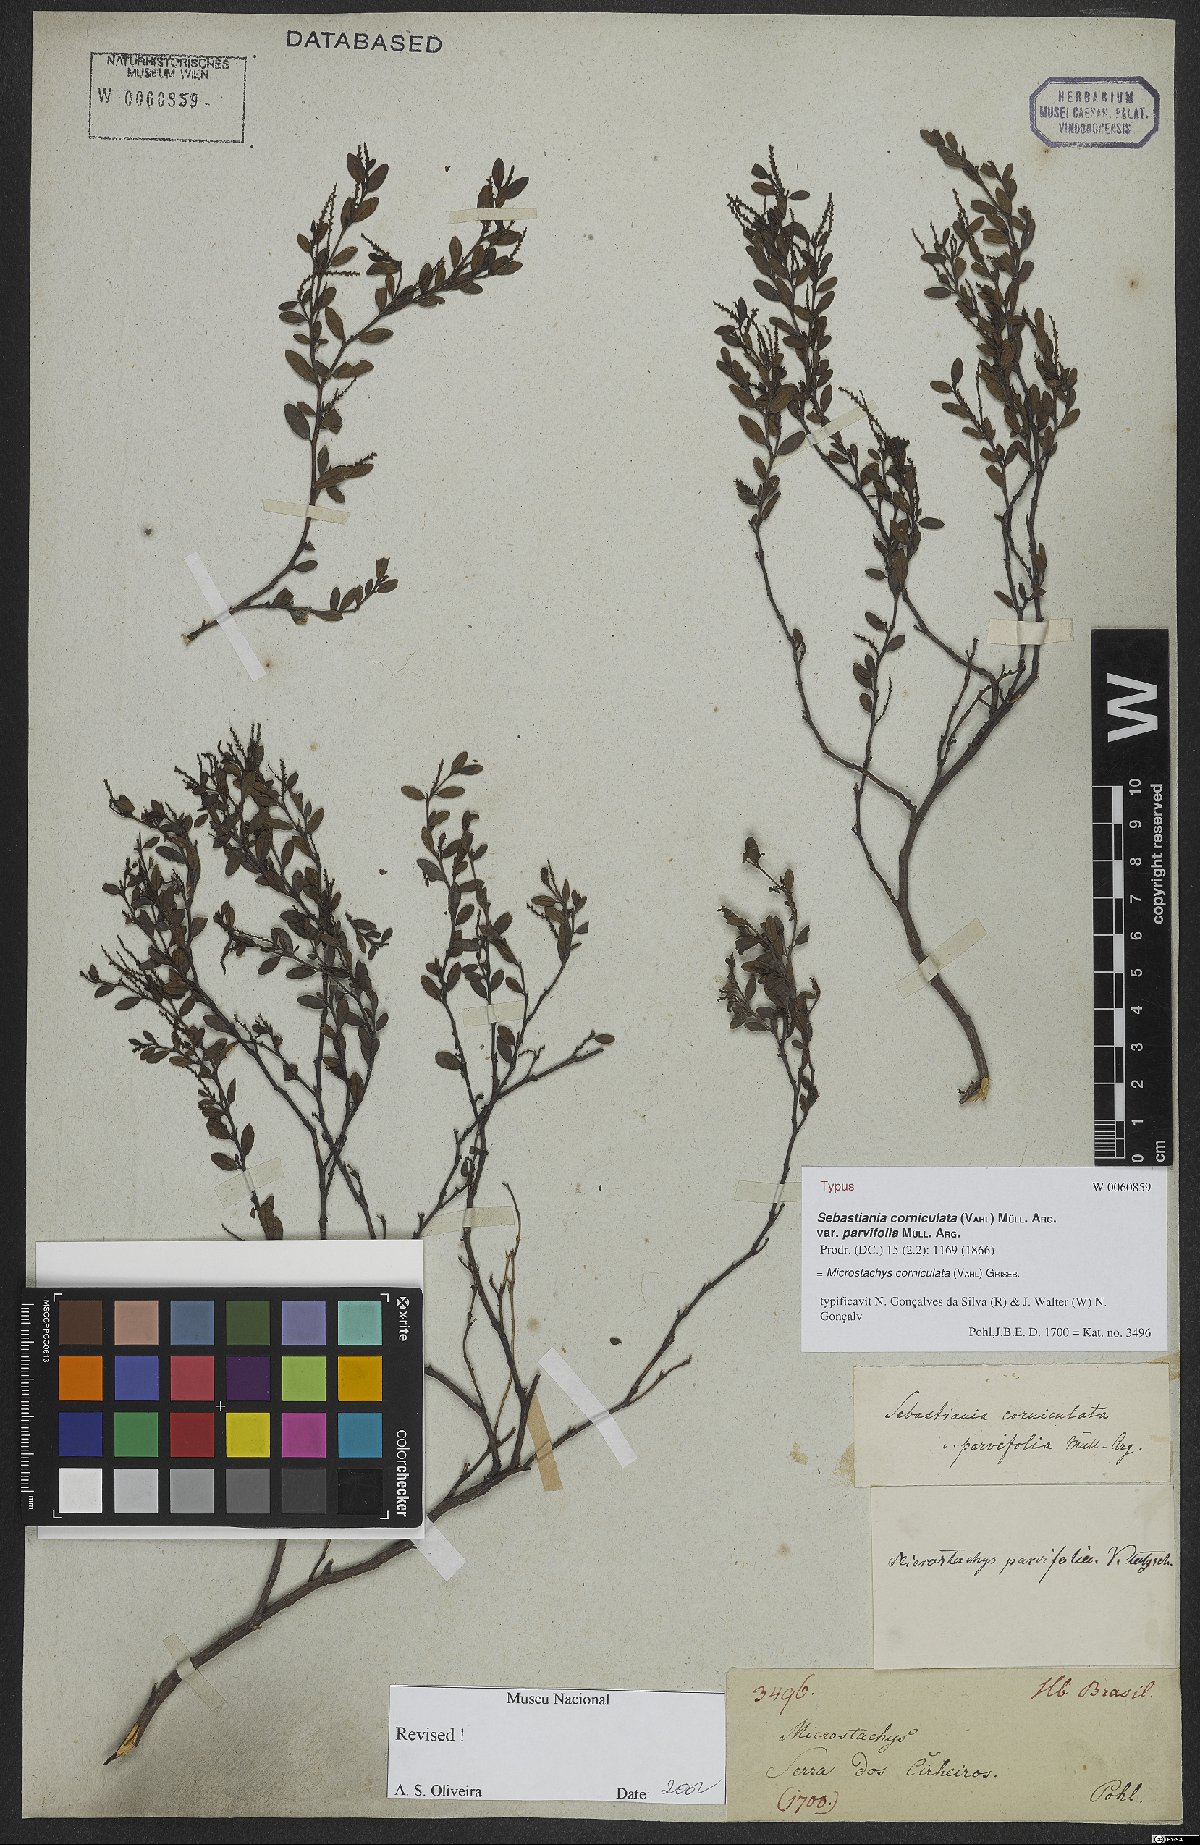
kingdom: Plantae
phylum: Tracheophyta
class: Magnoliopsida
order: Malpighiales
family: Euphorbiaceae
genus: Microstachys
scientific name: Microstachys corniculata
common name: Hato tejas
